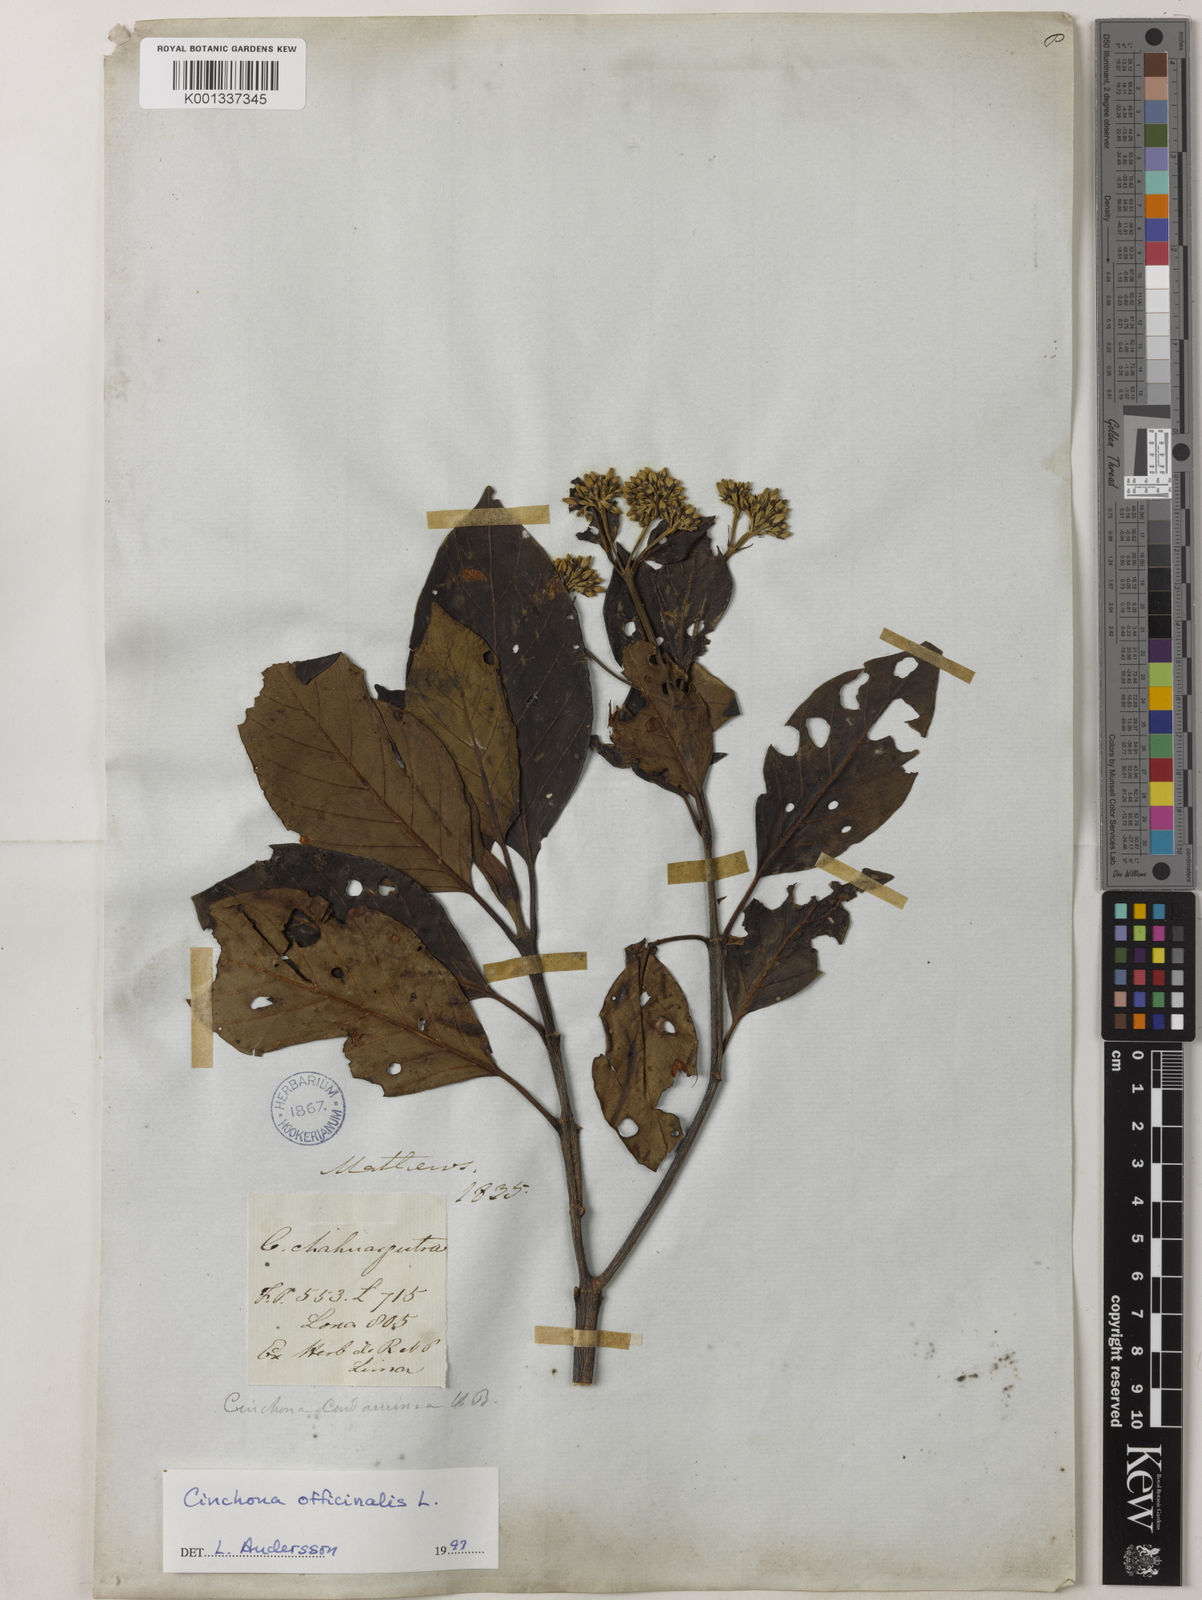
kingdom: Plantae
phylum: Tracheophyta
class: Magnoliopsida
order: Gentianales
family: Rubiaceae
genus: Cinchona
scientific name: Cinchona officinalis
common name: Lojabark
